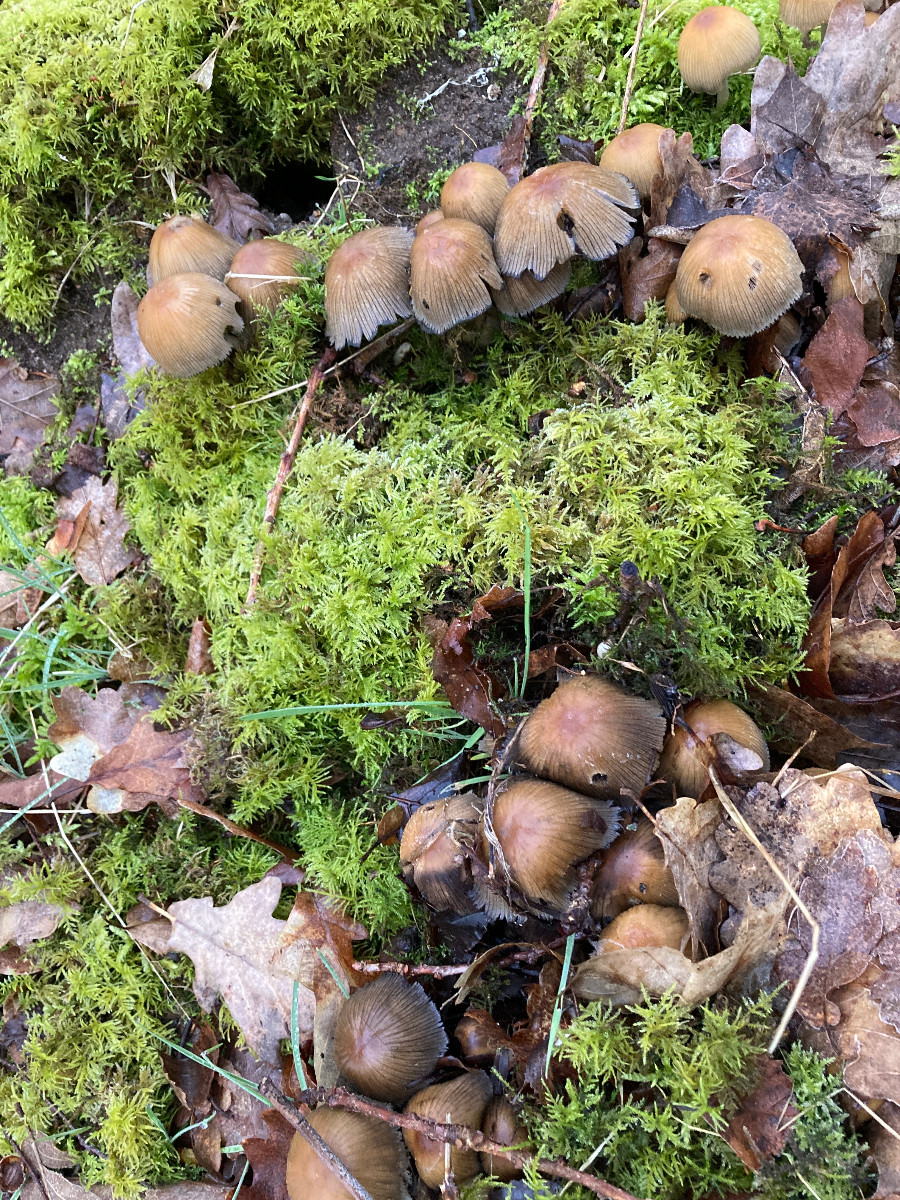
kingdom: Fungi
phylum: Basidiomycota
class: Agaricomycetes
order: Agaricales
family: Psathyrellaceae
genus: Coprinellus
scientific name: Coprinellus micaceus
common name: glimmer-blækhat
